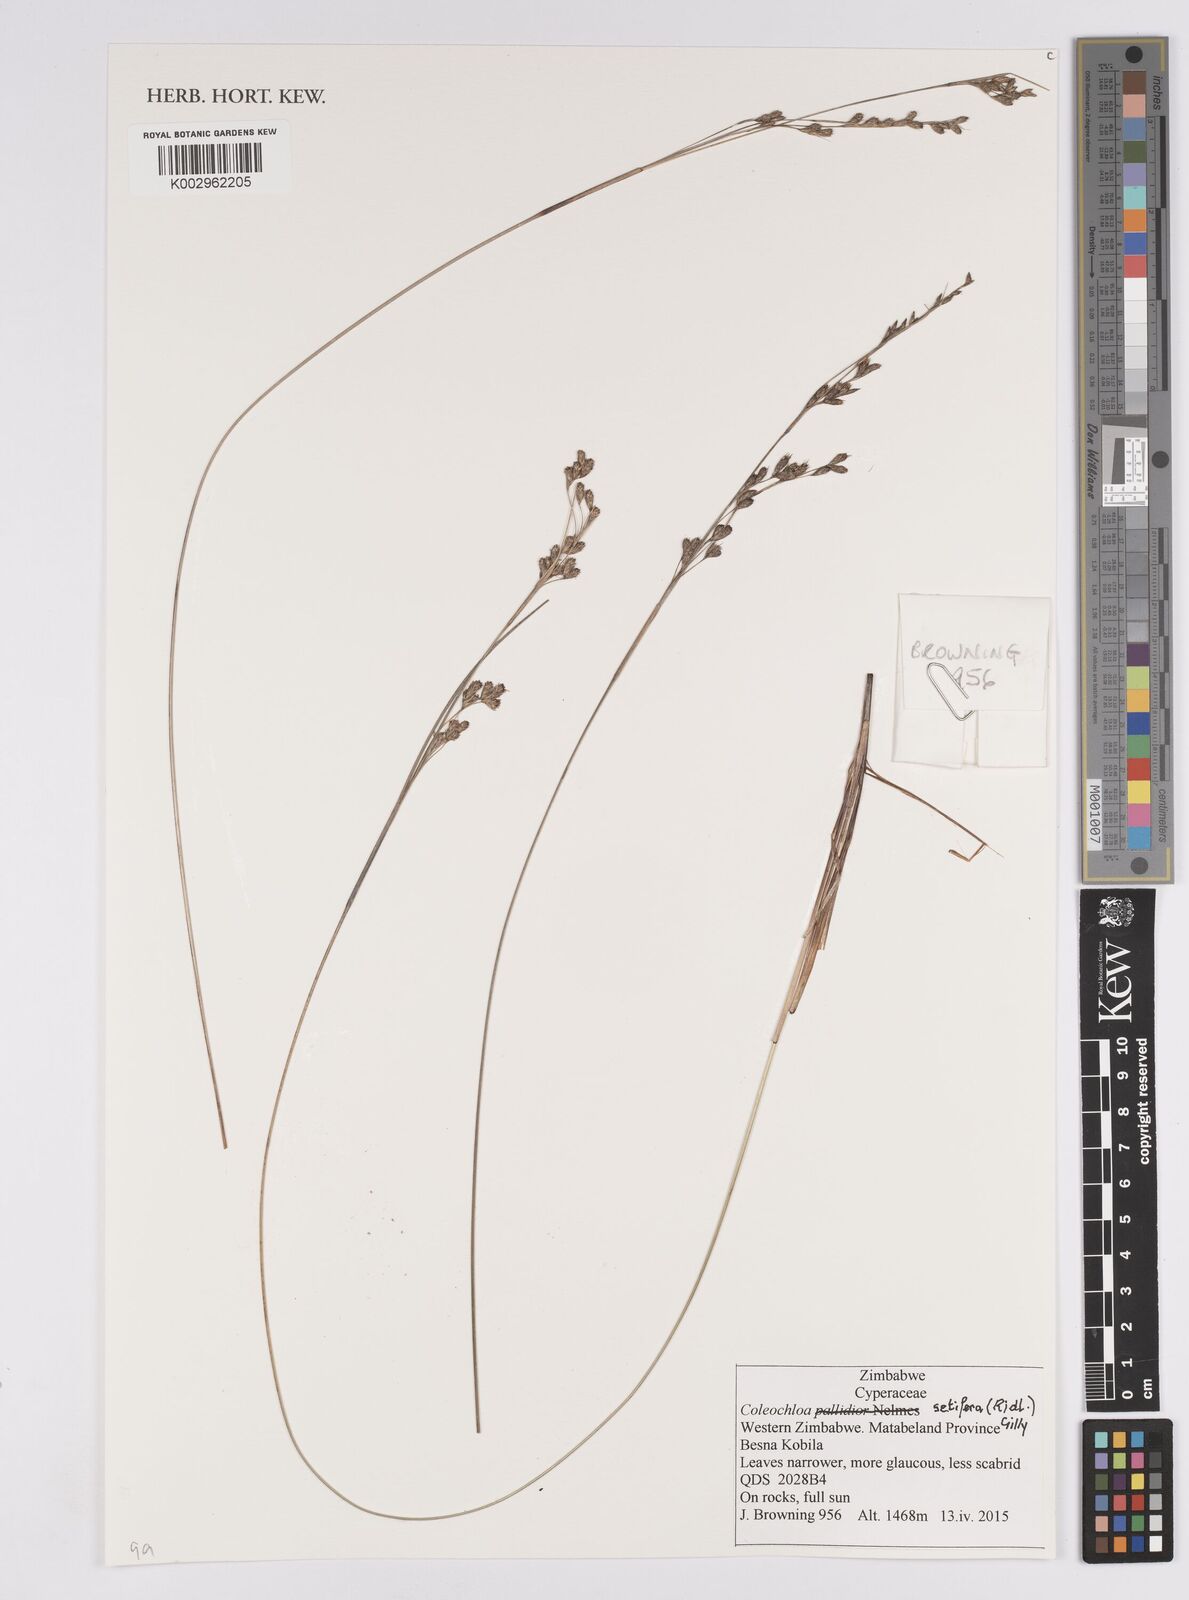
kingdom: Plantae
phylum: Tracheophyta
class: Liliopsida
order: Poales
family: Cyperaceae
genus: Coleochloa
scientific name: Coleochloa setifera
